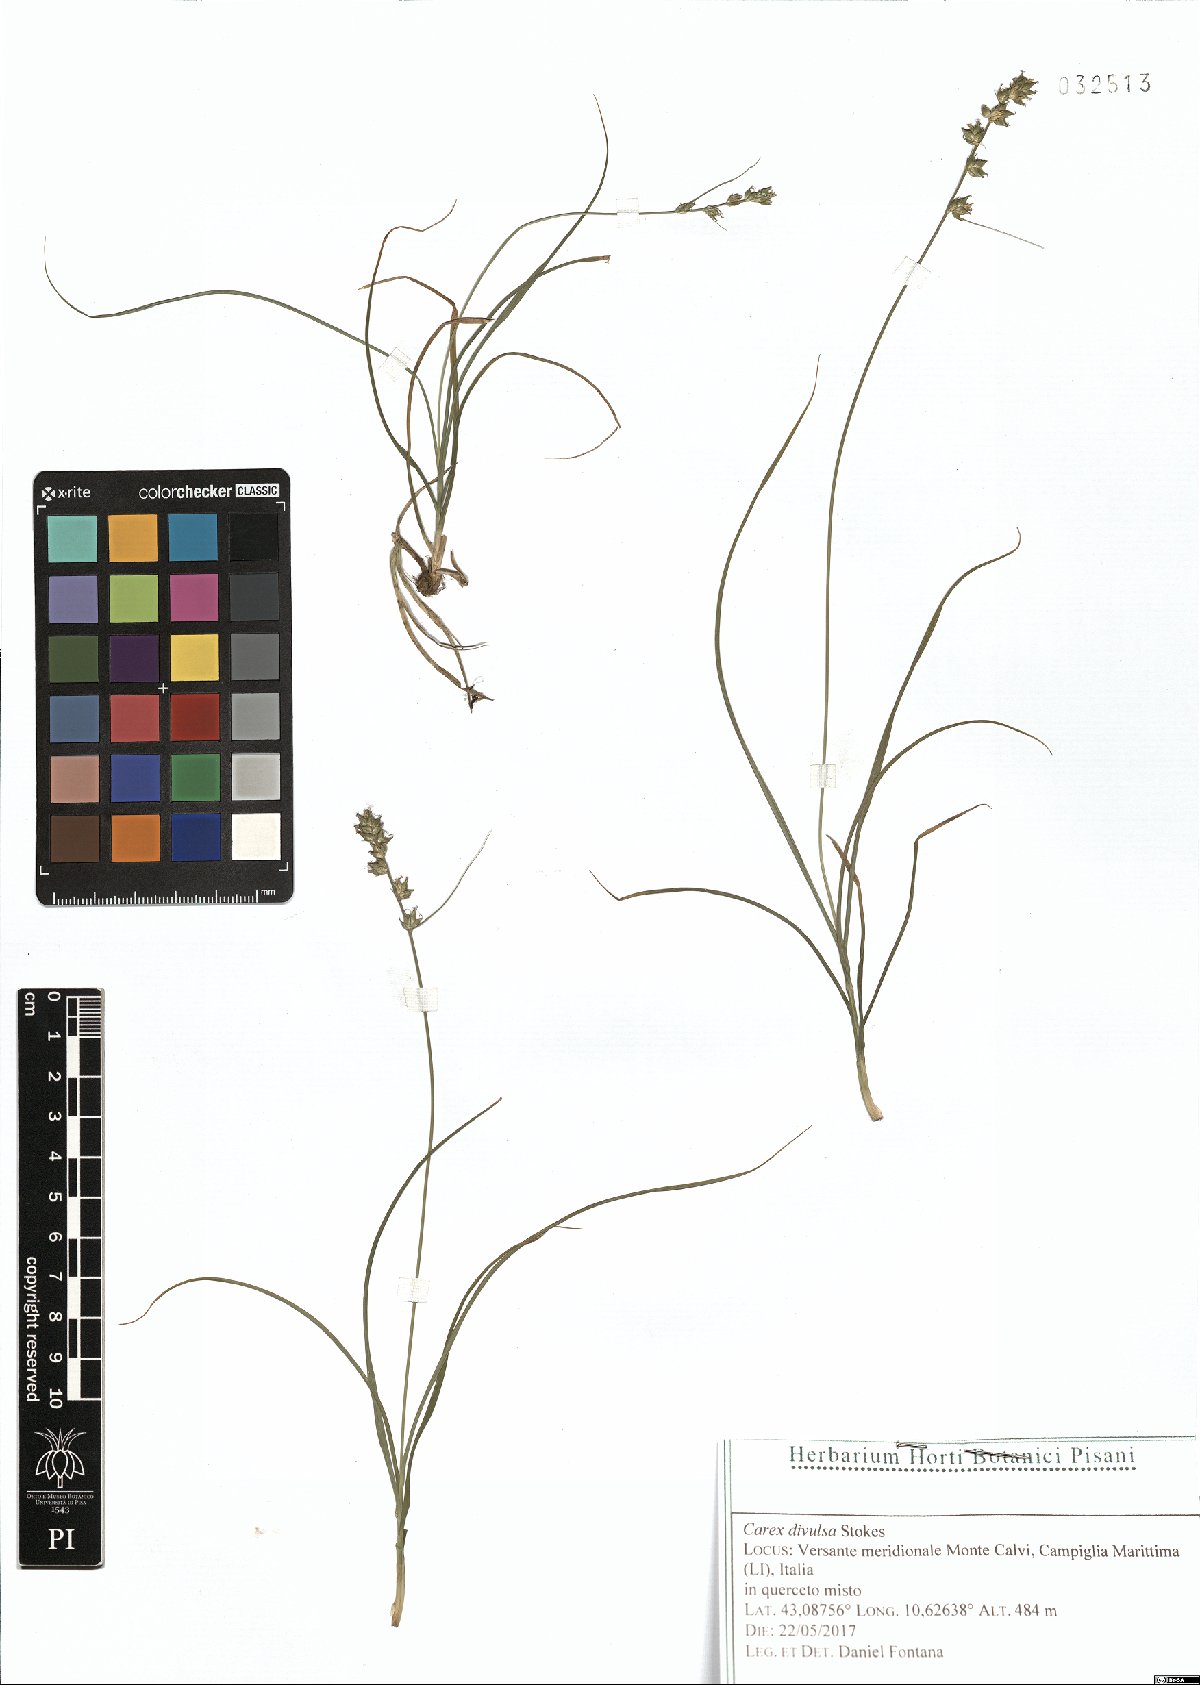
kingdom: Plantae
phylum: Tracheophyta
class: Liliopsida
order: Poales
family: Cyperaceae
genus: Carex
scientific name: Carex divulsa
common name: Grassland sedge
